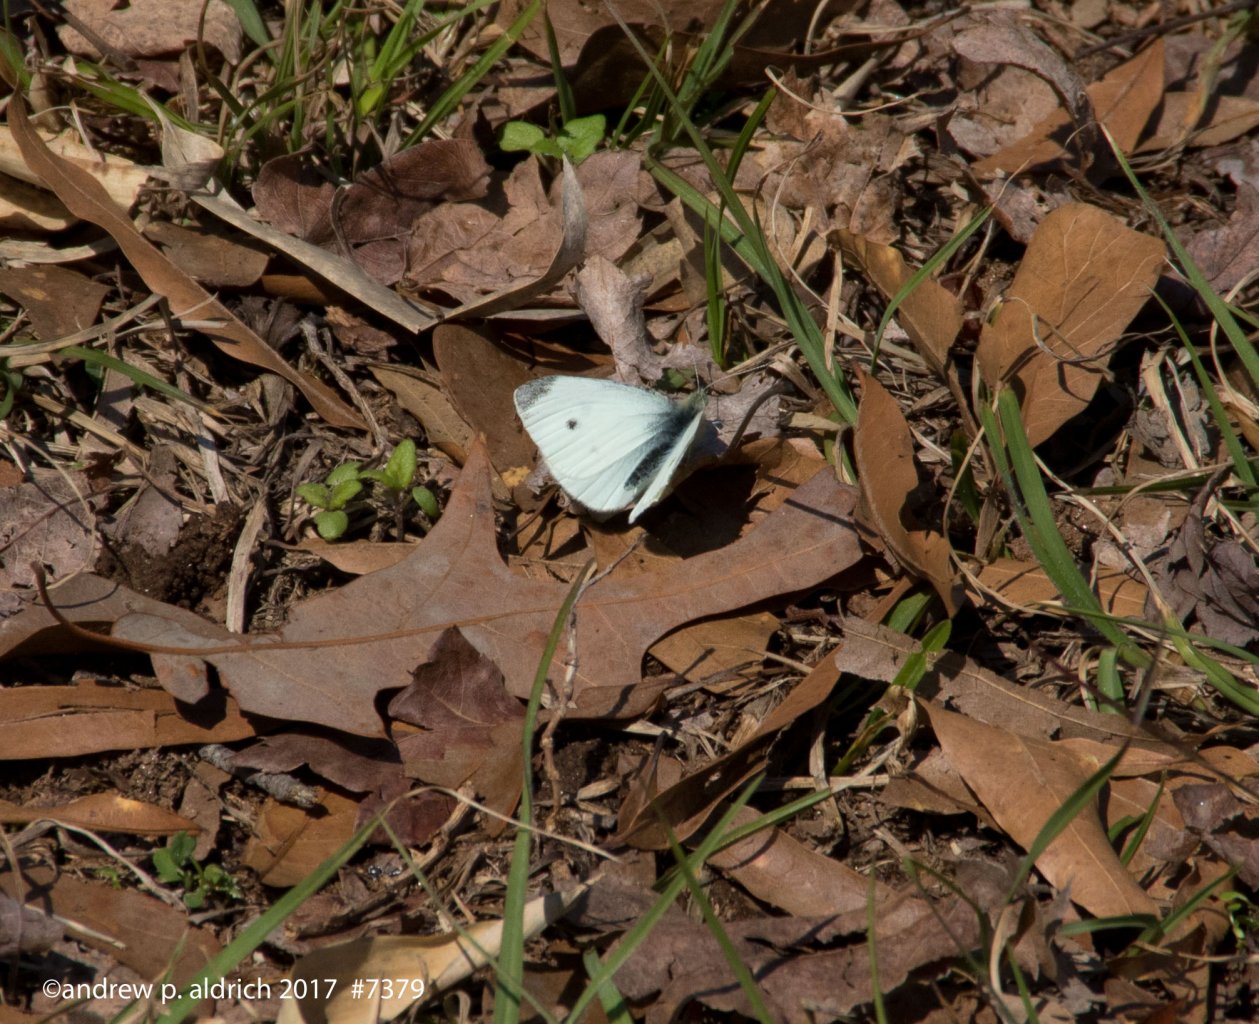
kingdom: Animalia
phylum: Arthropoda
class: Insecta
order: Lepidoptera
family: Pieridae
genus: Pieris
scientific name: Pieris rapae
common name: Cabbage White
